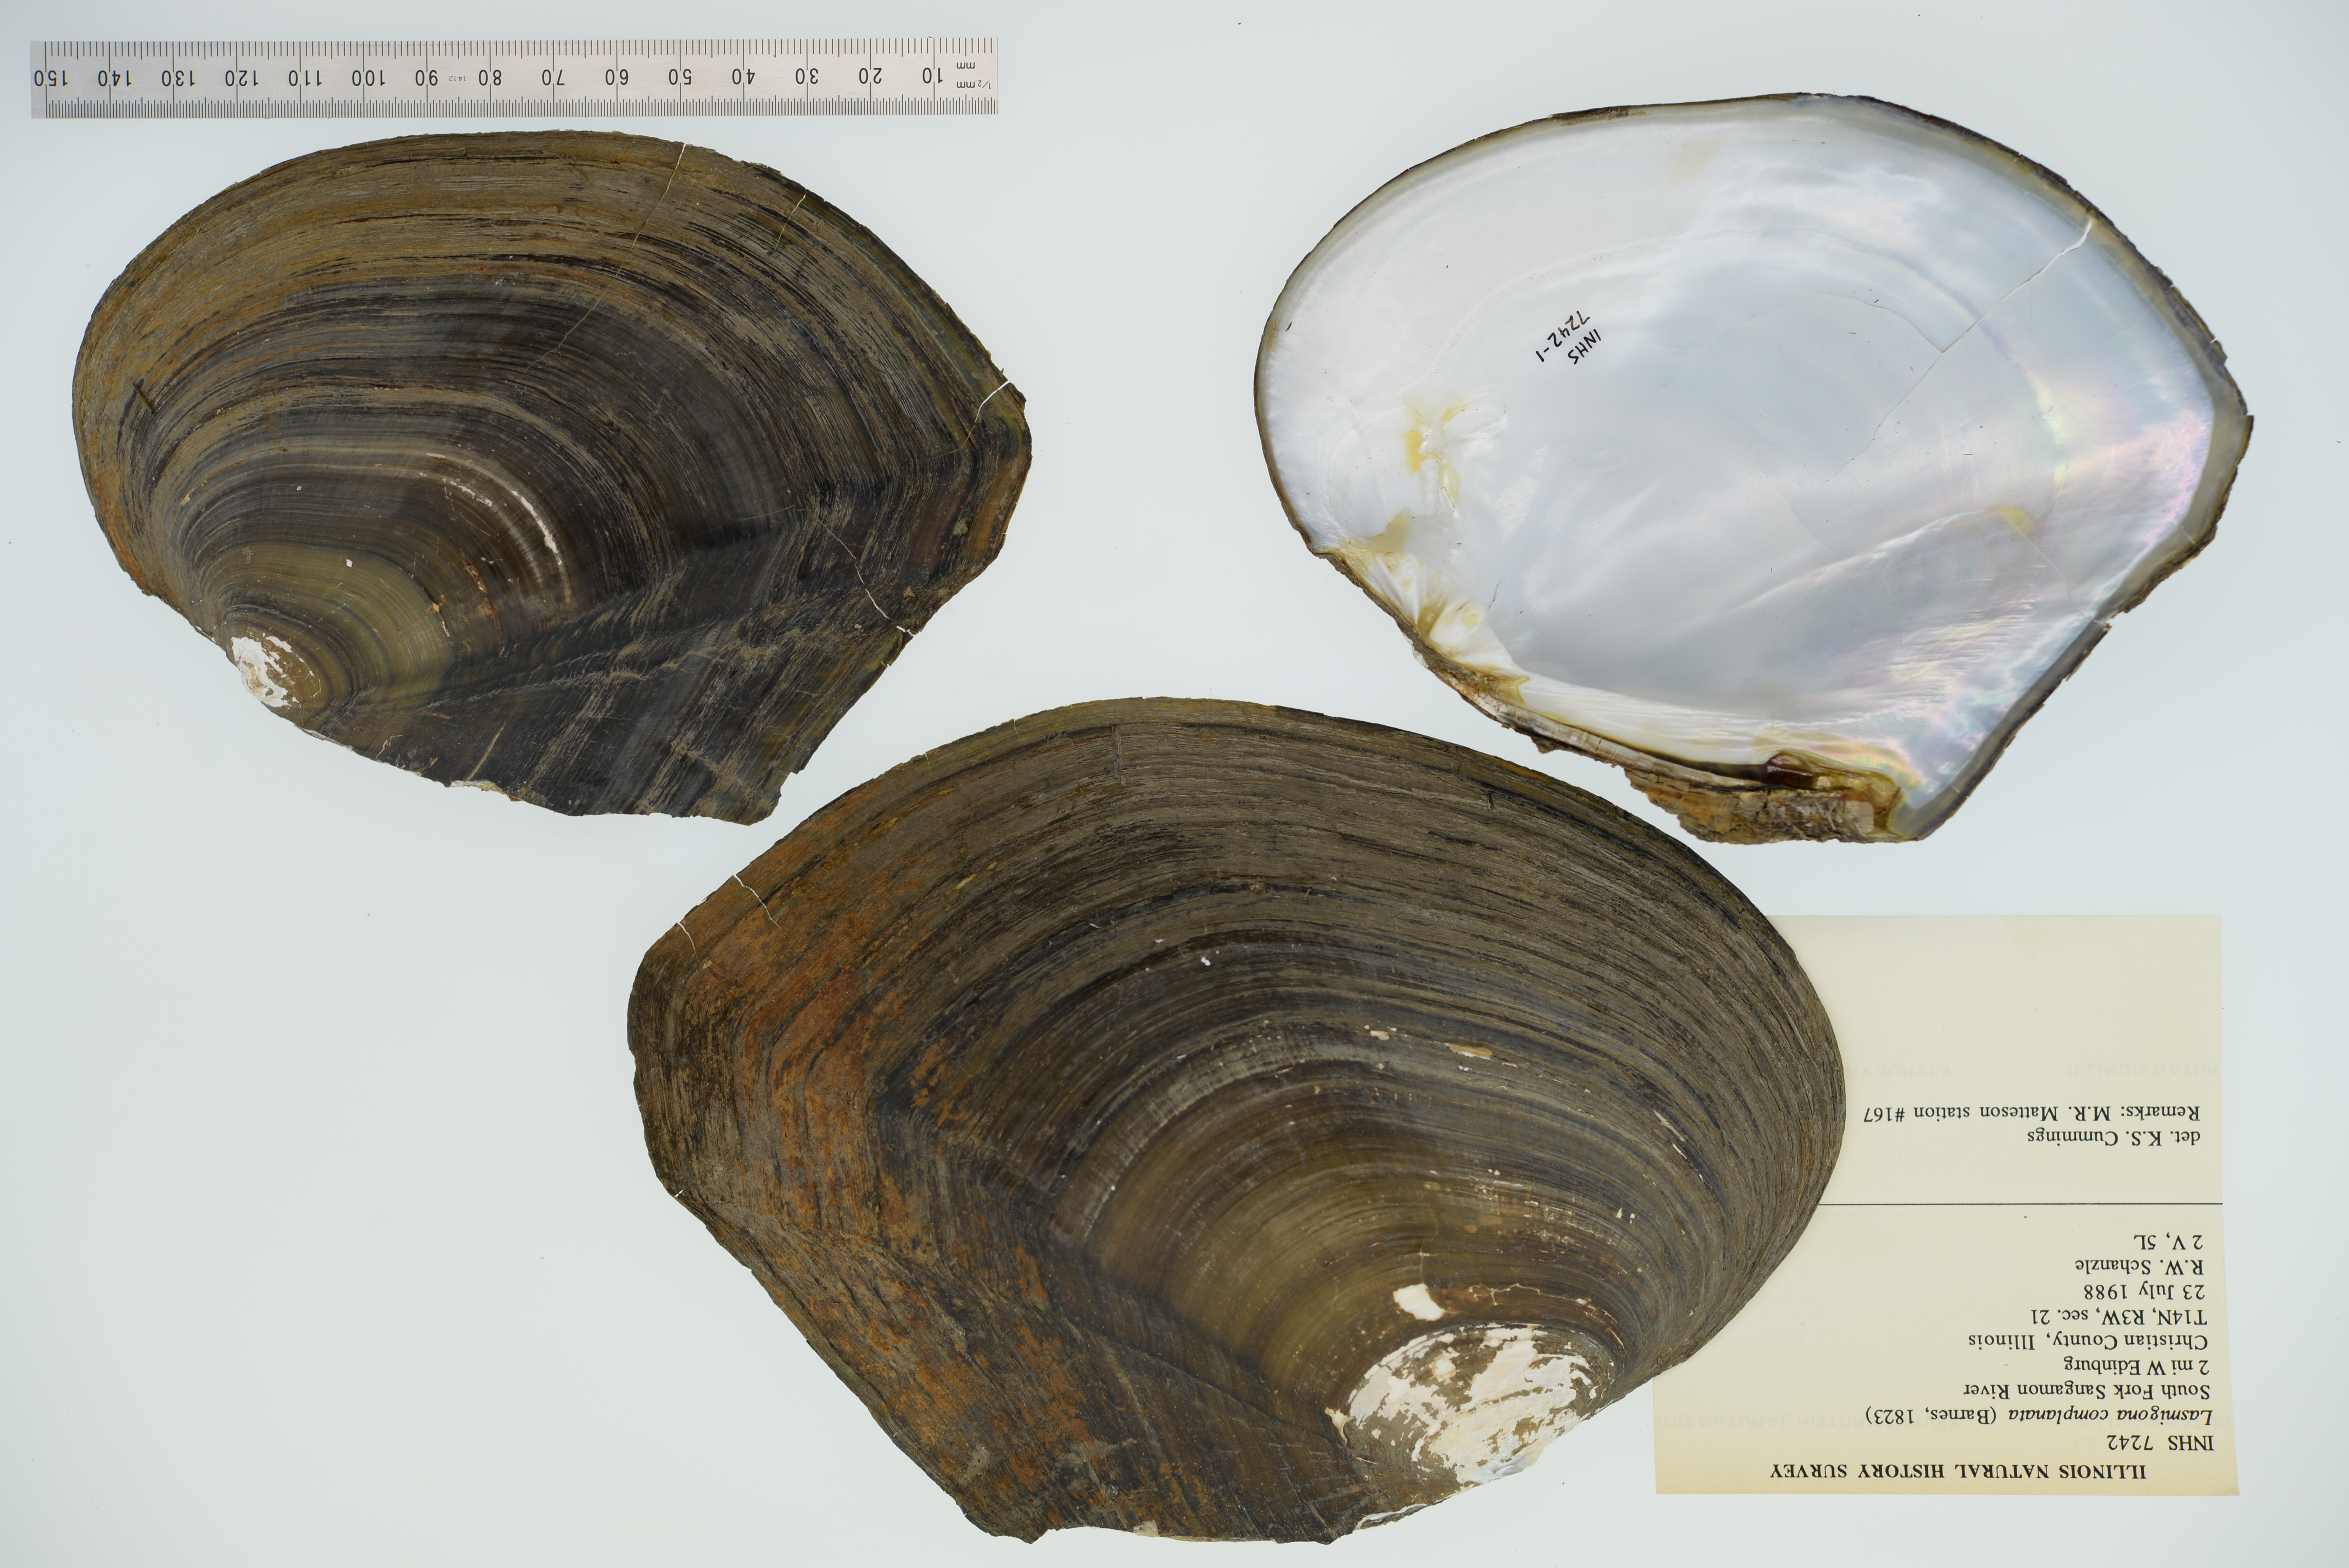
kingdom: Animalia
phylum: Mollusca
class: Bivalvia
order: Unionida
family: Unionidae
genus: Lasmigona
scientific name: Lasmigona complanata
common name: White heelsplitter
